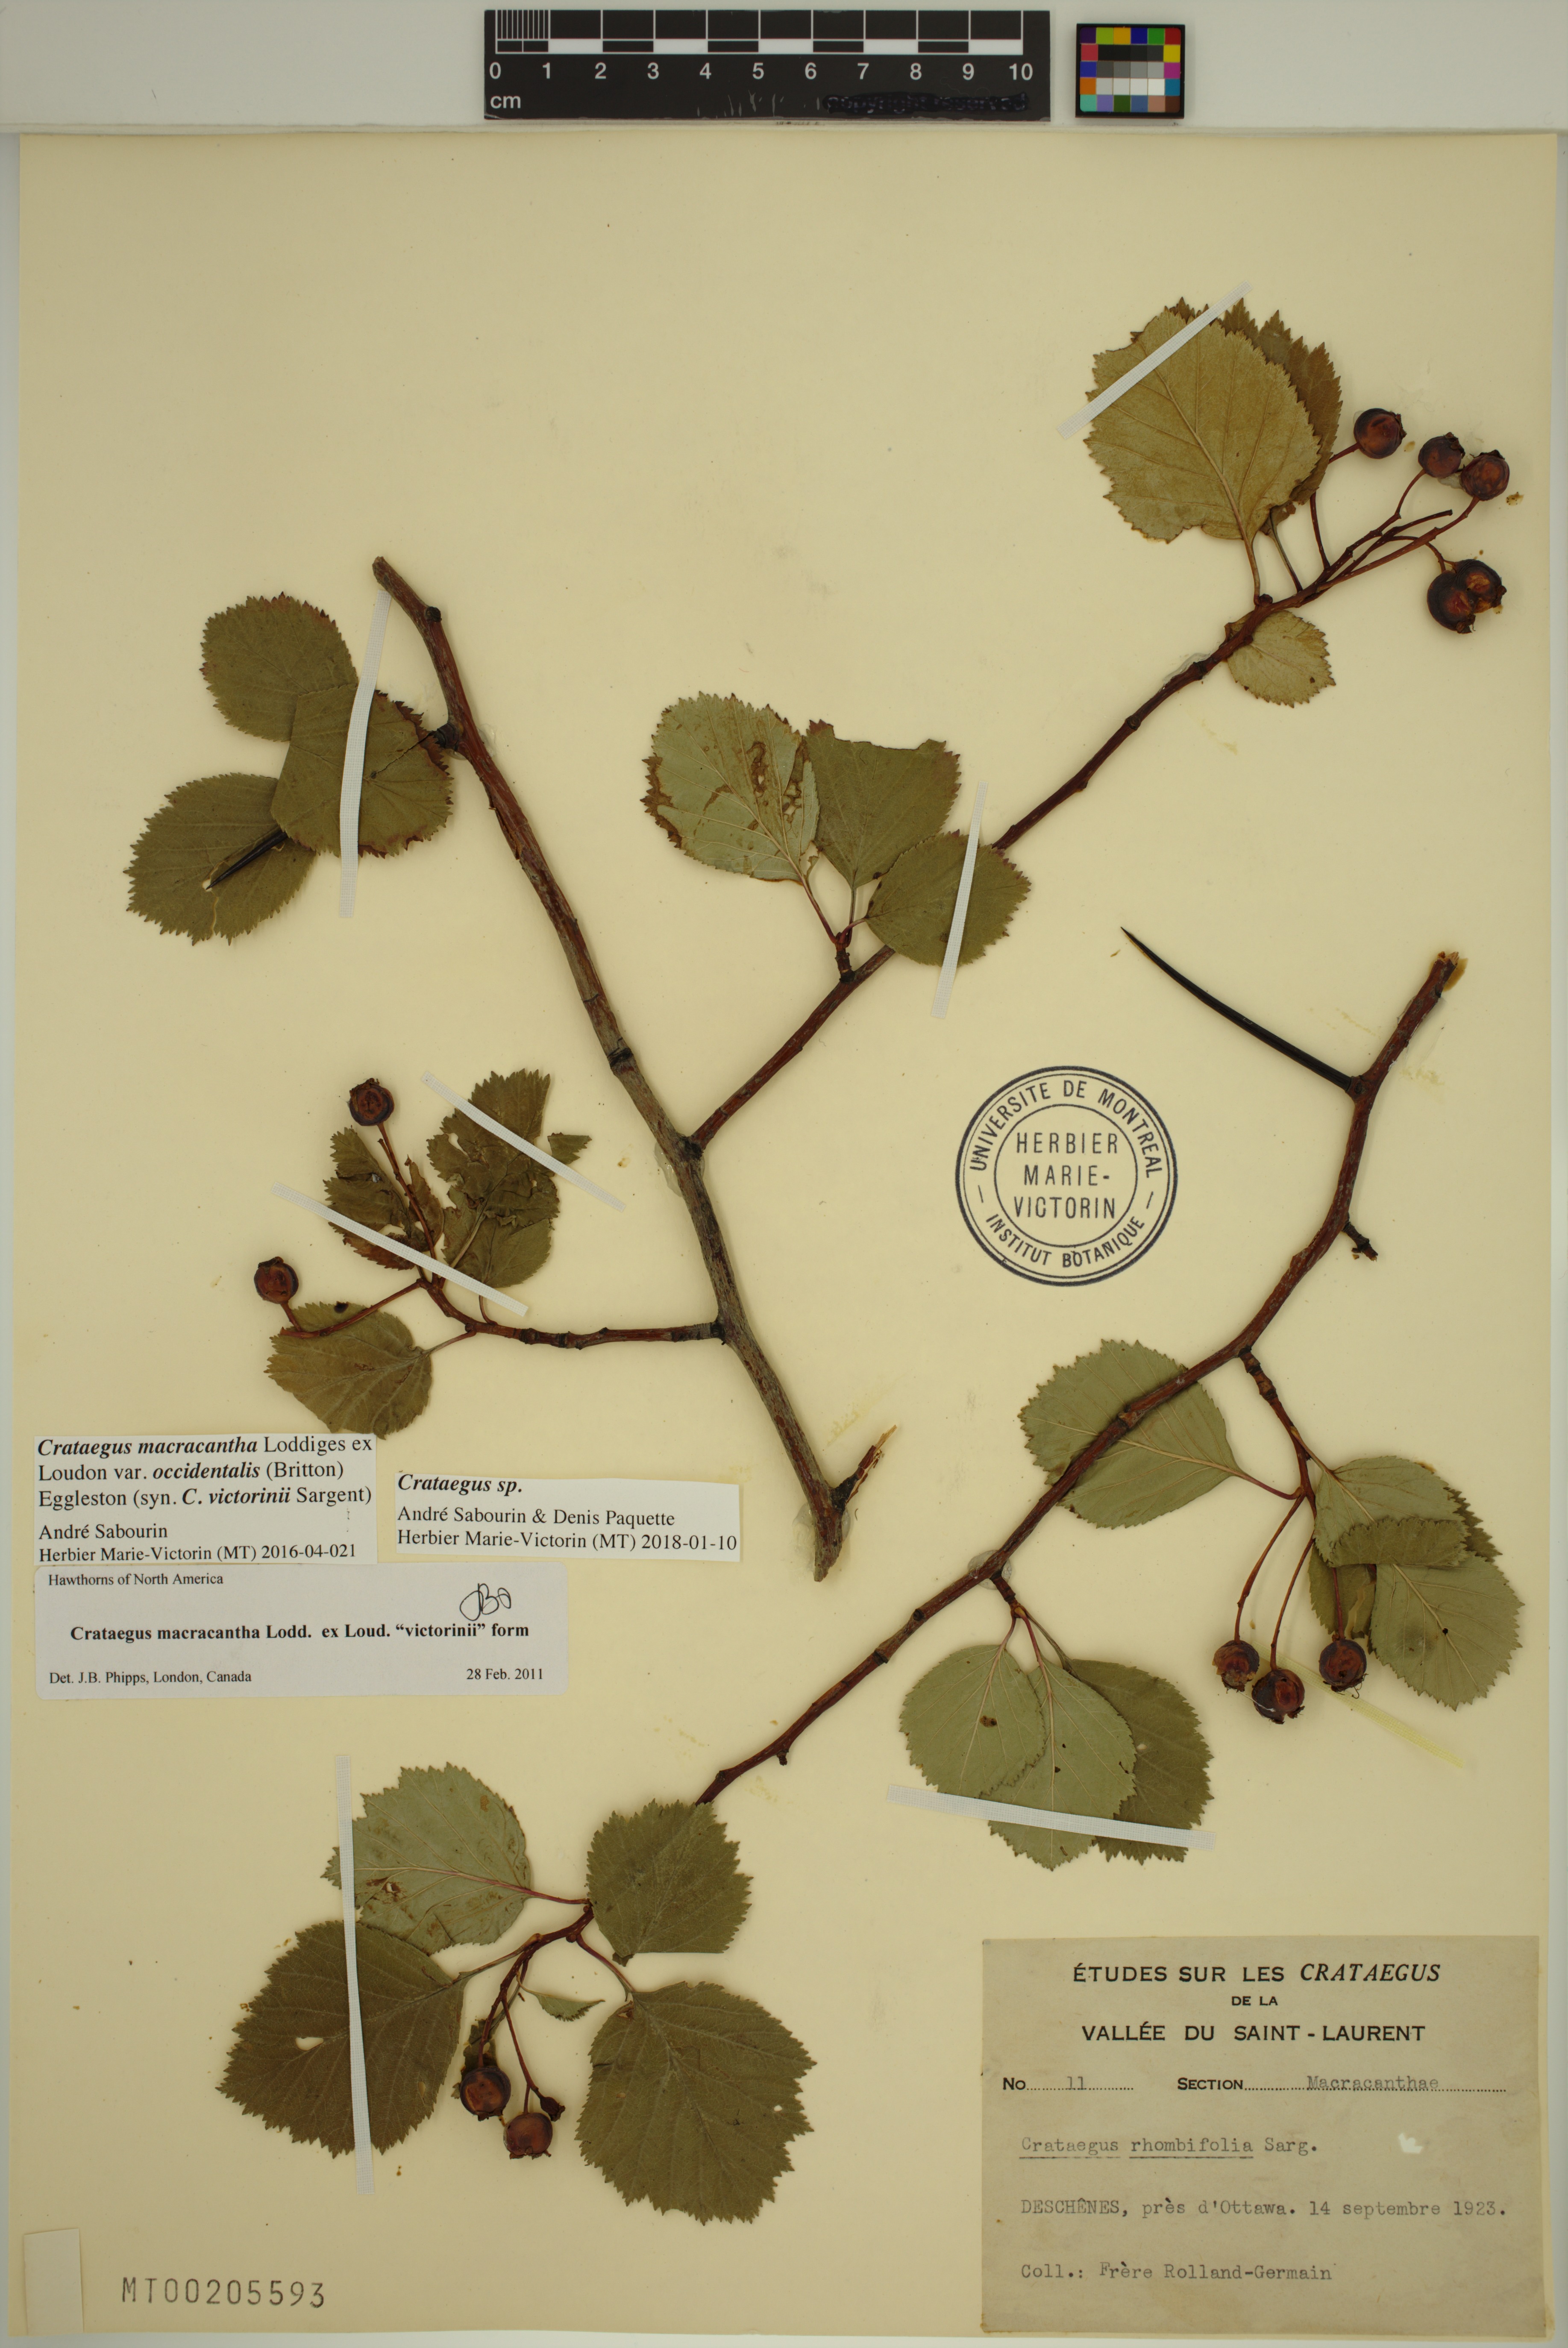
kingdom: Plantae
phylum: Tracheophyta
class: Magnoliopsida
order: Rosales
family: Rosaceae
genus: Crataegus
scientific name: Crataegus macracantha
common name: Large-thorn hawthorn
